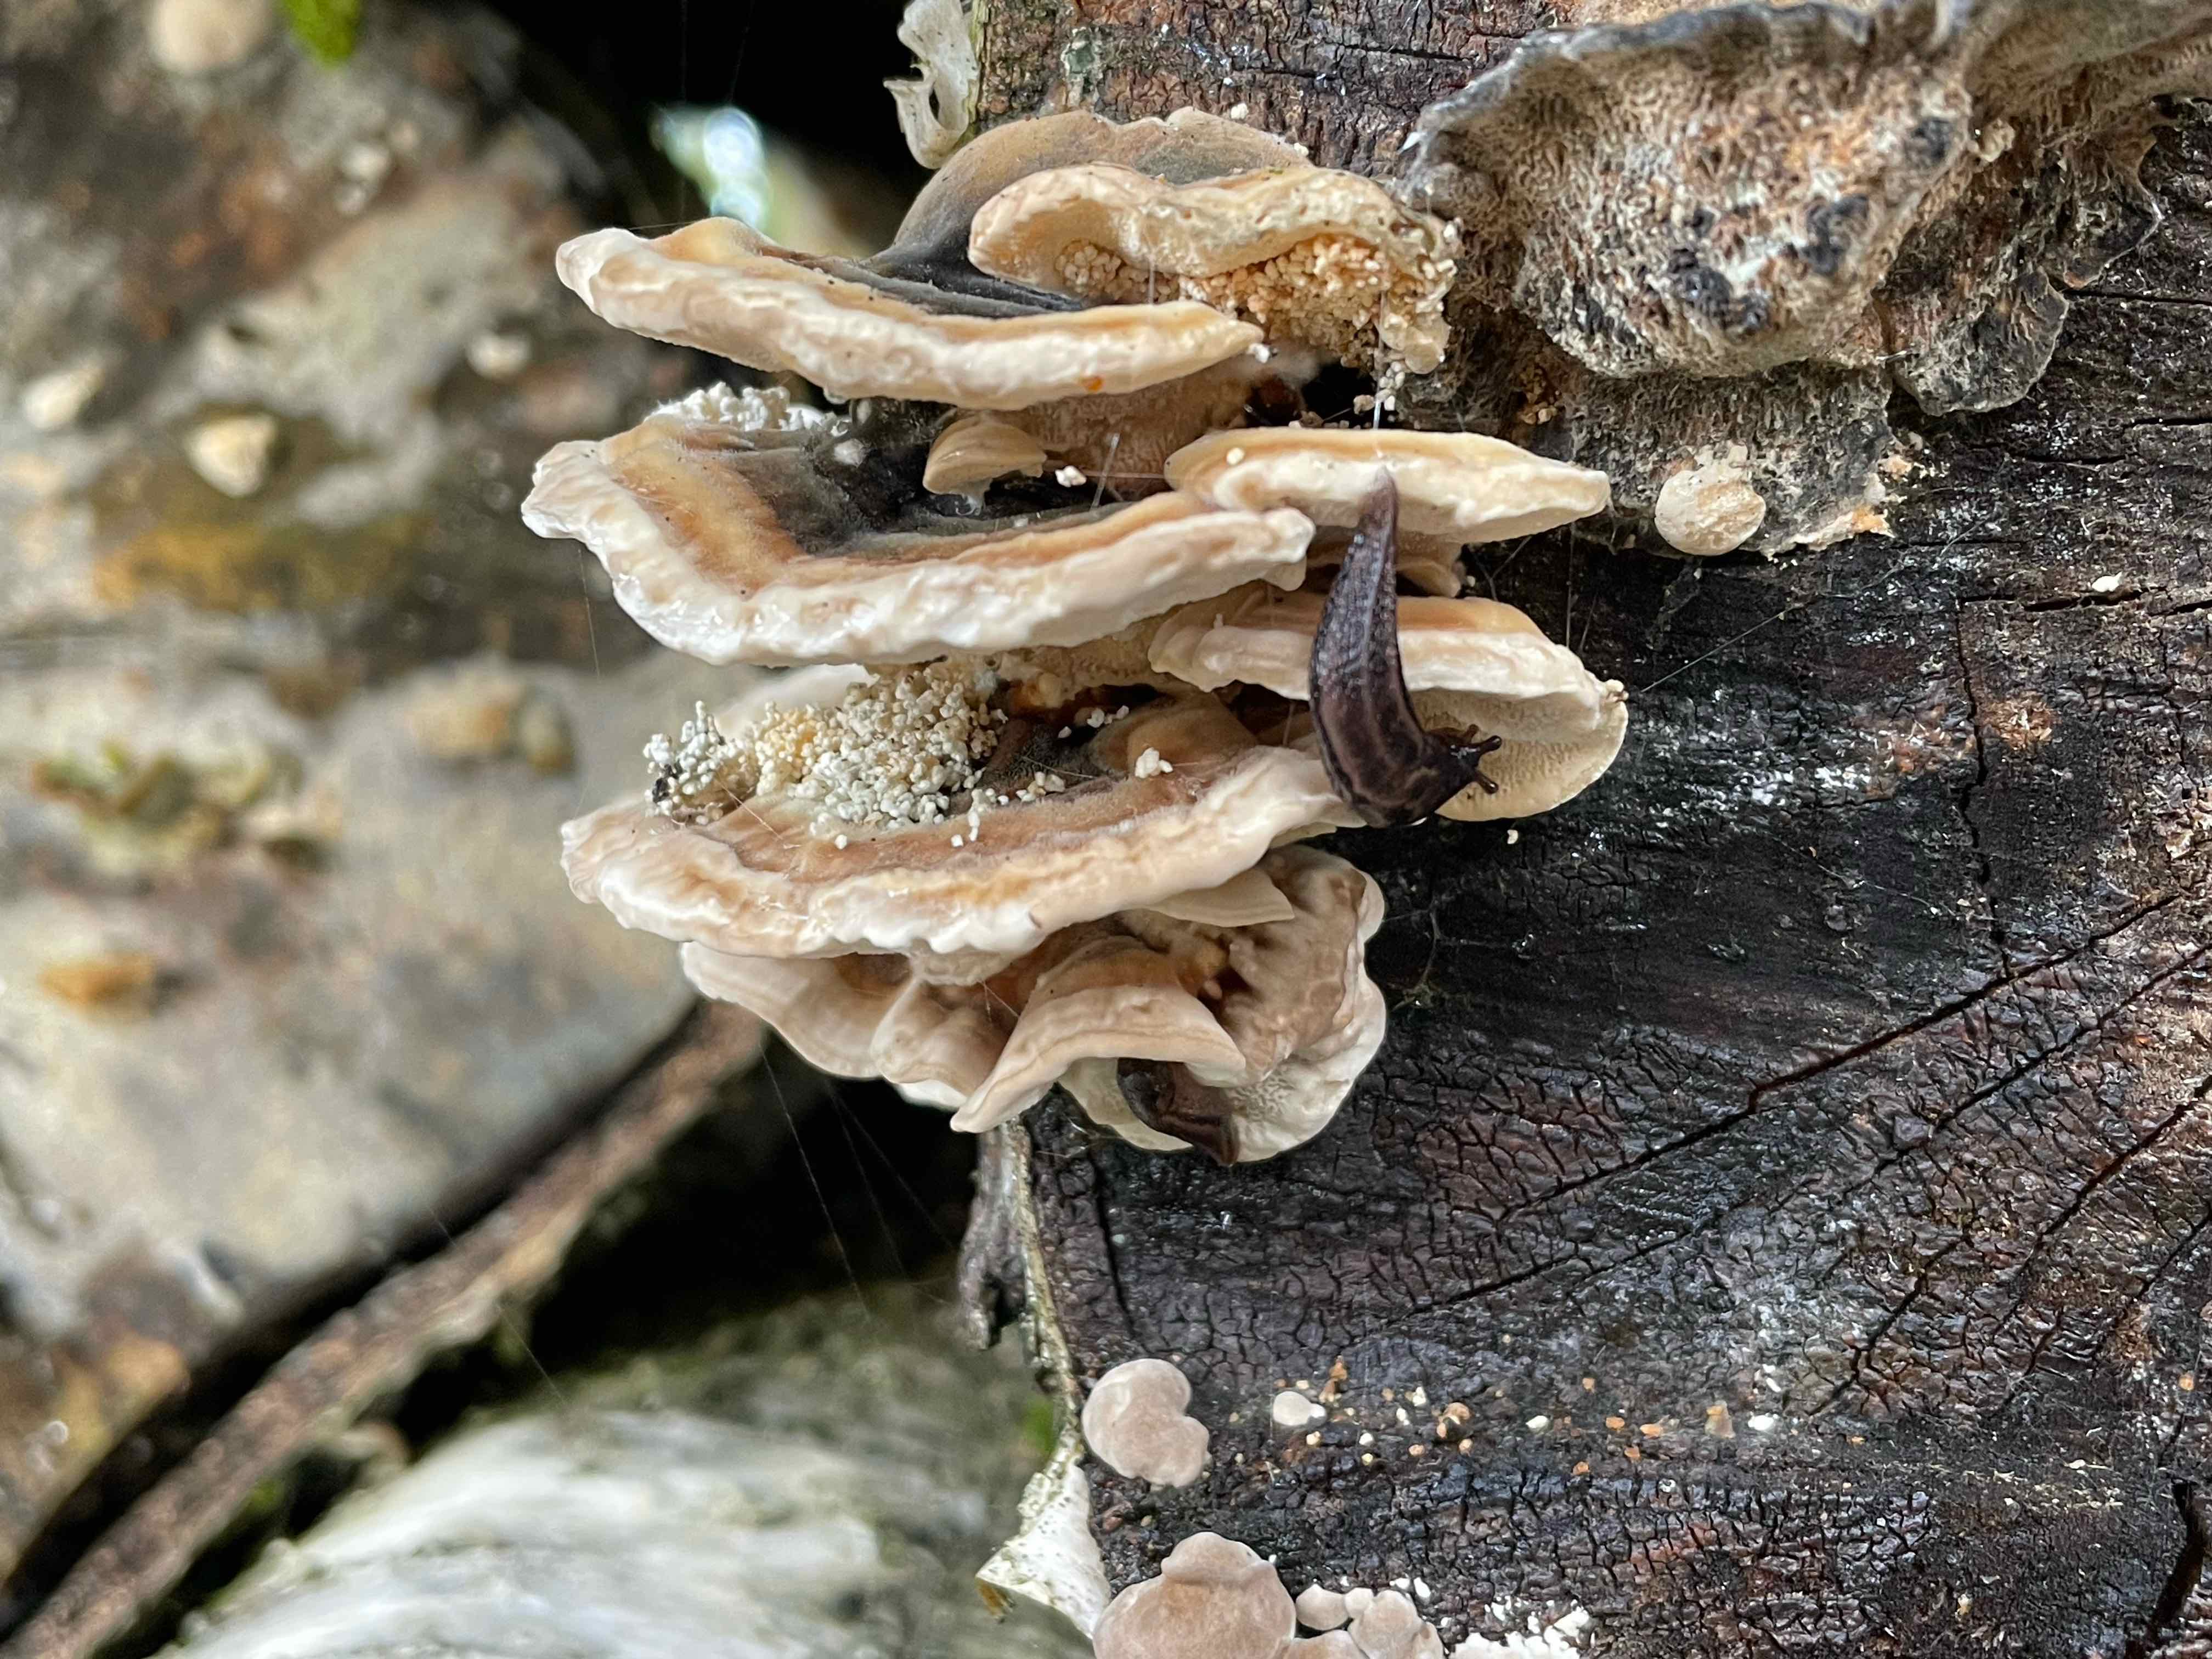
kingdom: Fungi
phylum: Basidiomycota
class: Agaricomycetes
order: Polyporales
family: Polyporaceae
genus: Trametes
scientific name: Trametes ochracea
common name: bæltet læderporesvamp
